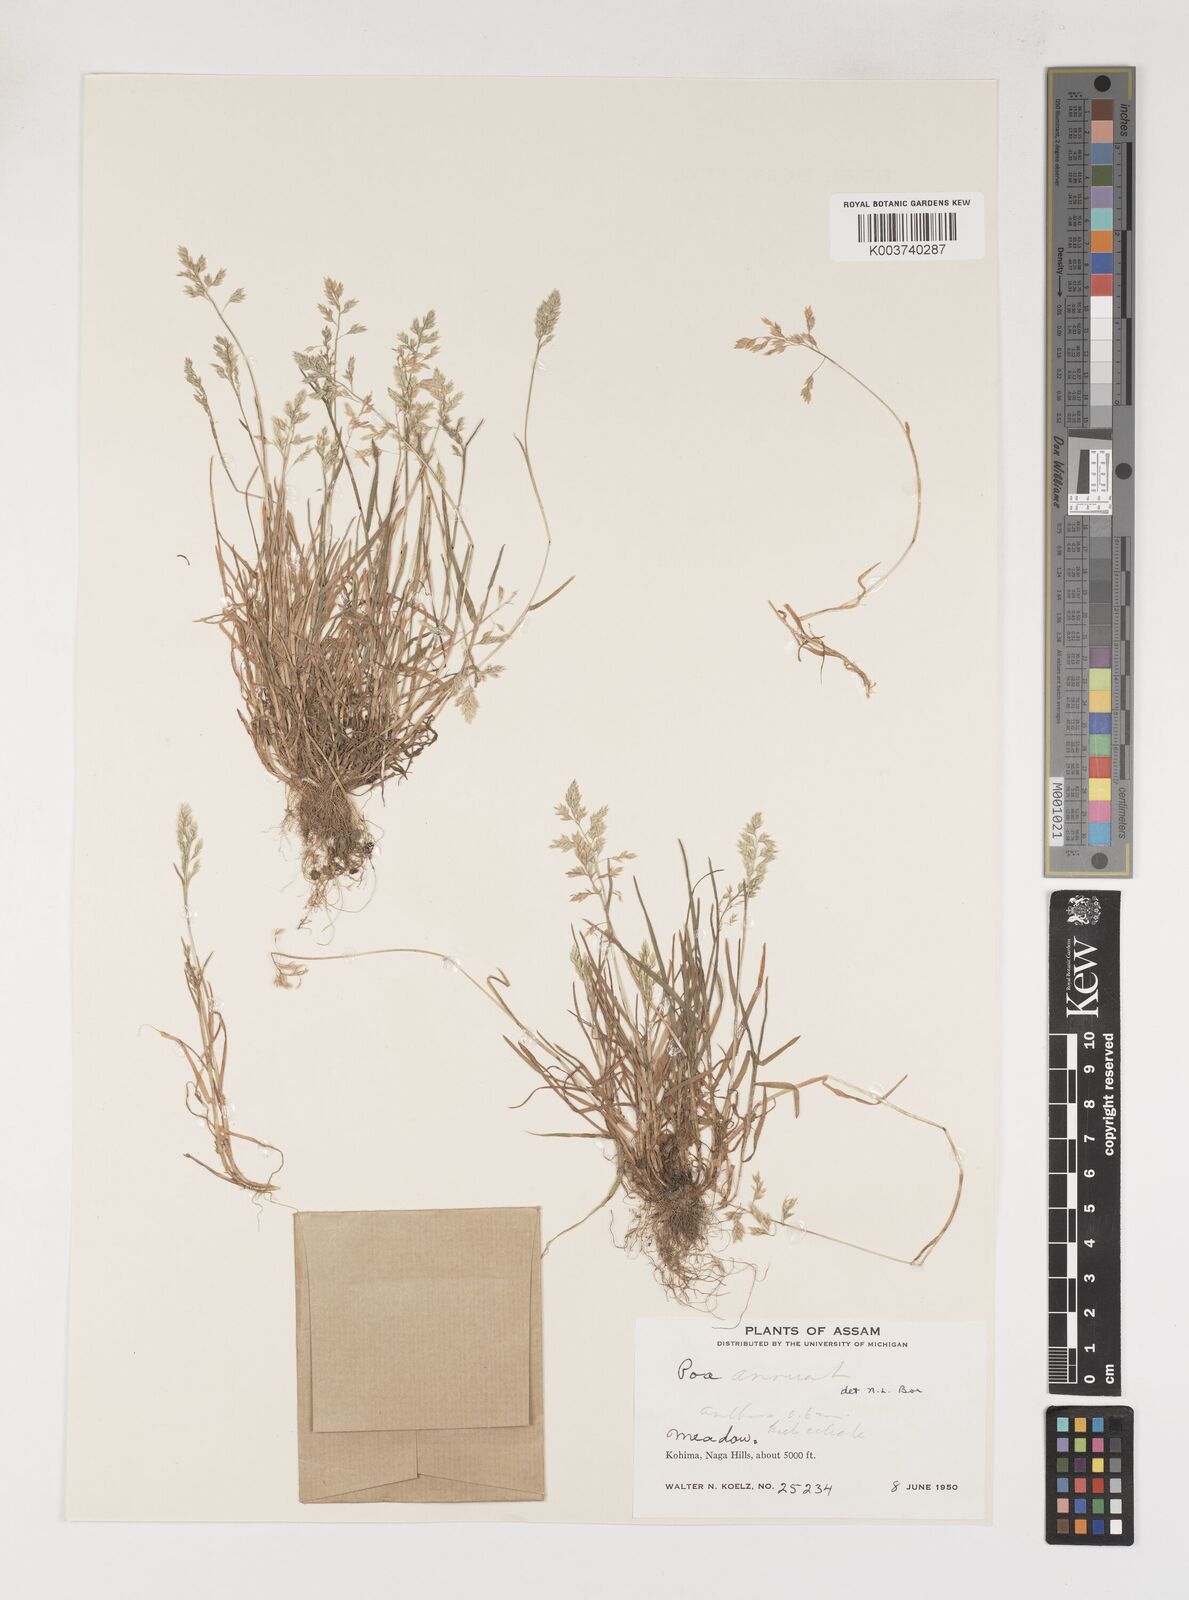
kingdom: Plantae
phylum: Tracheophyta
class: Liliopsida
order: Poales
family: Poaceae
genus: Poa
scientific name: Poa annua
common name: Annual bluegrass
